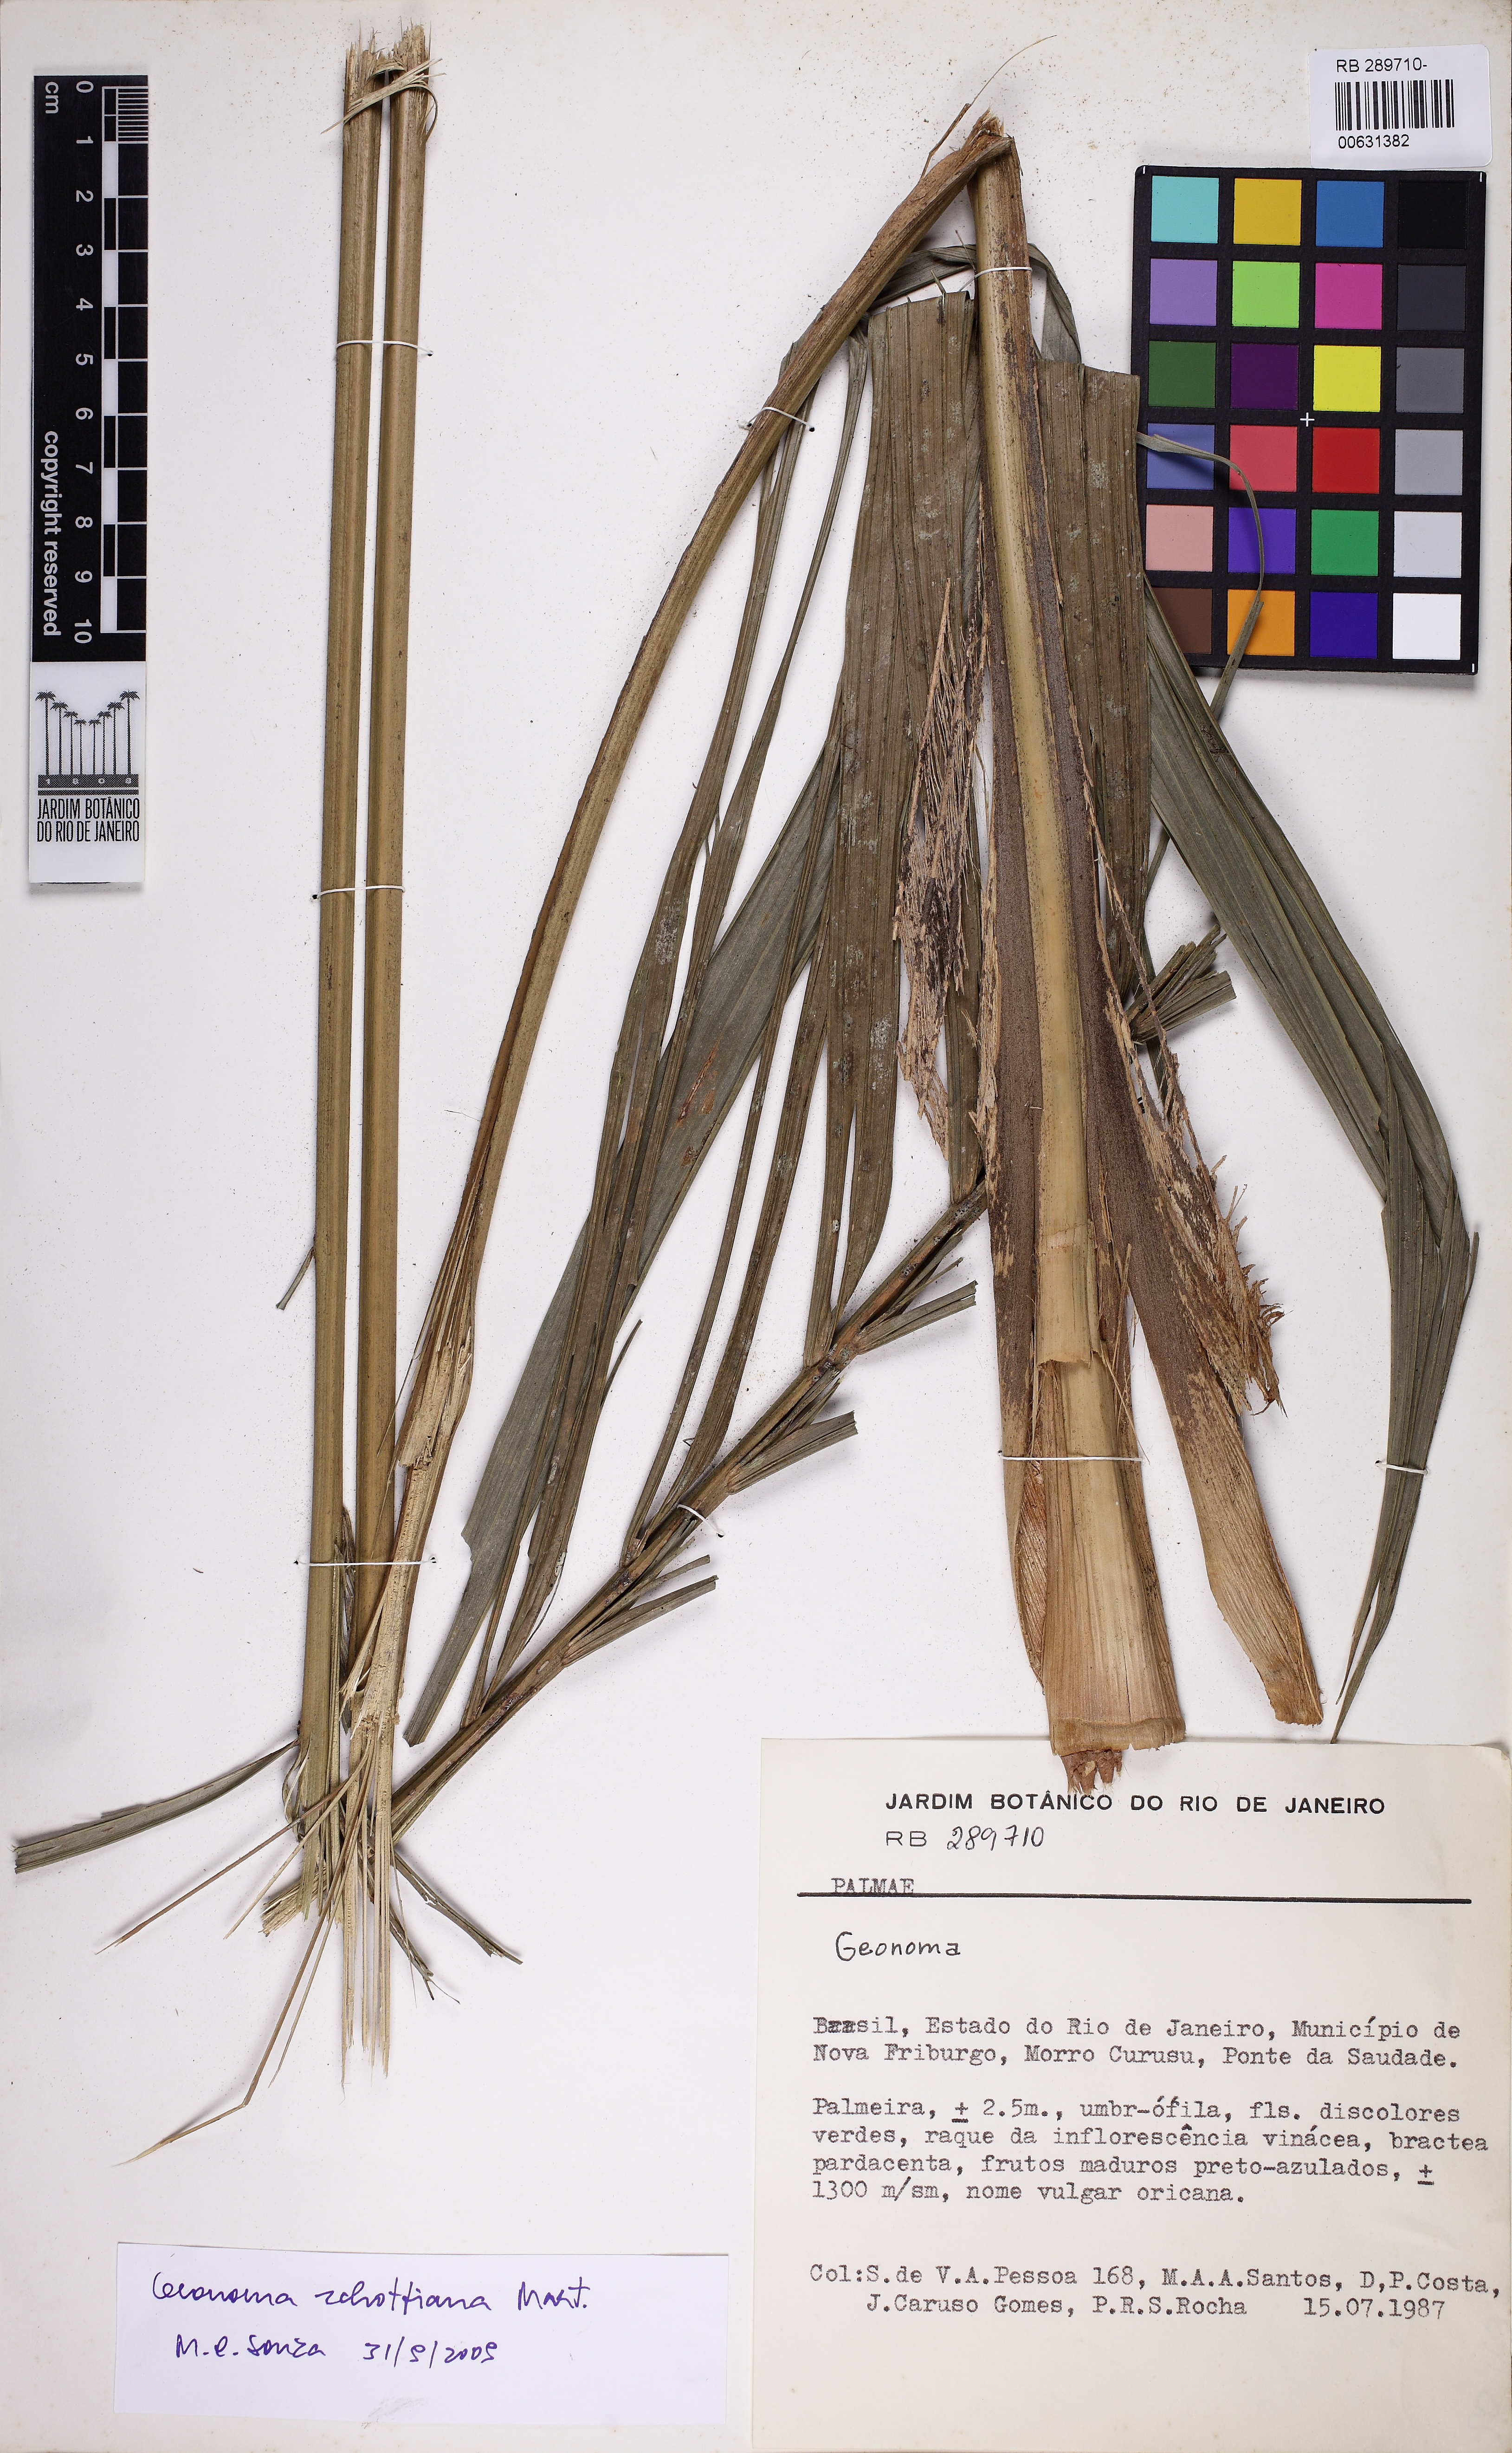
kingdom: Plantae
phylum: Tracheophyta
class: Liliopsida
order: Arecales
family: Arecaceae
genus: Geonoma
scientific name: Geonoma schottiana
